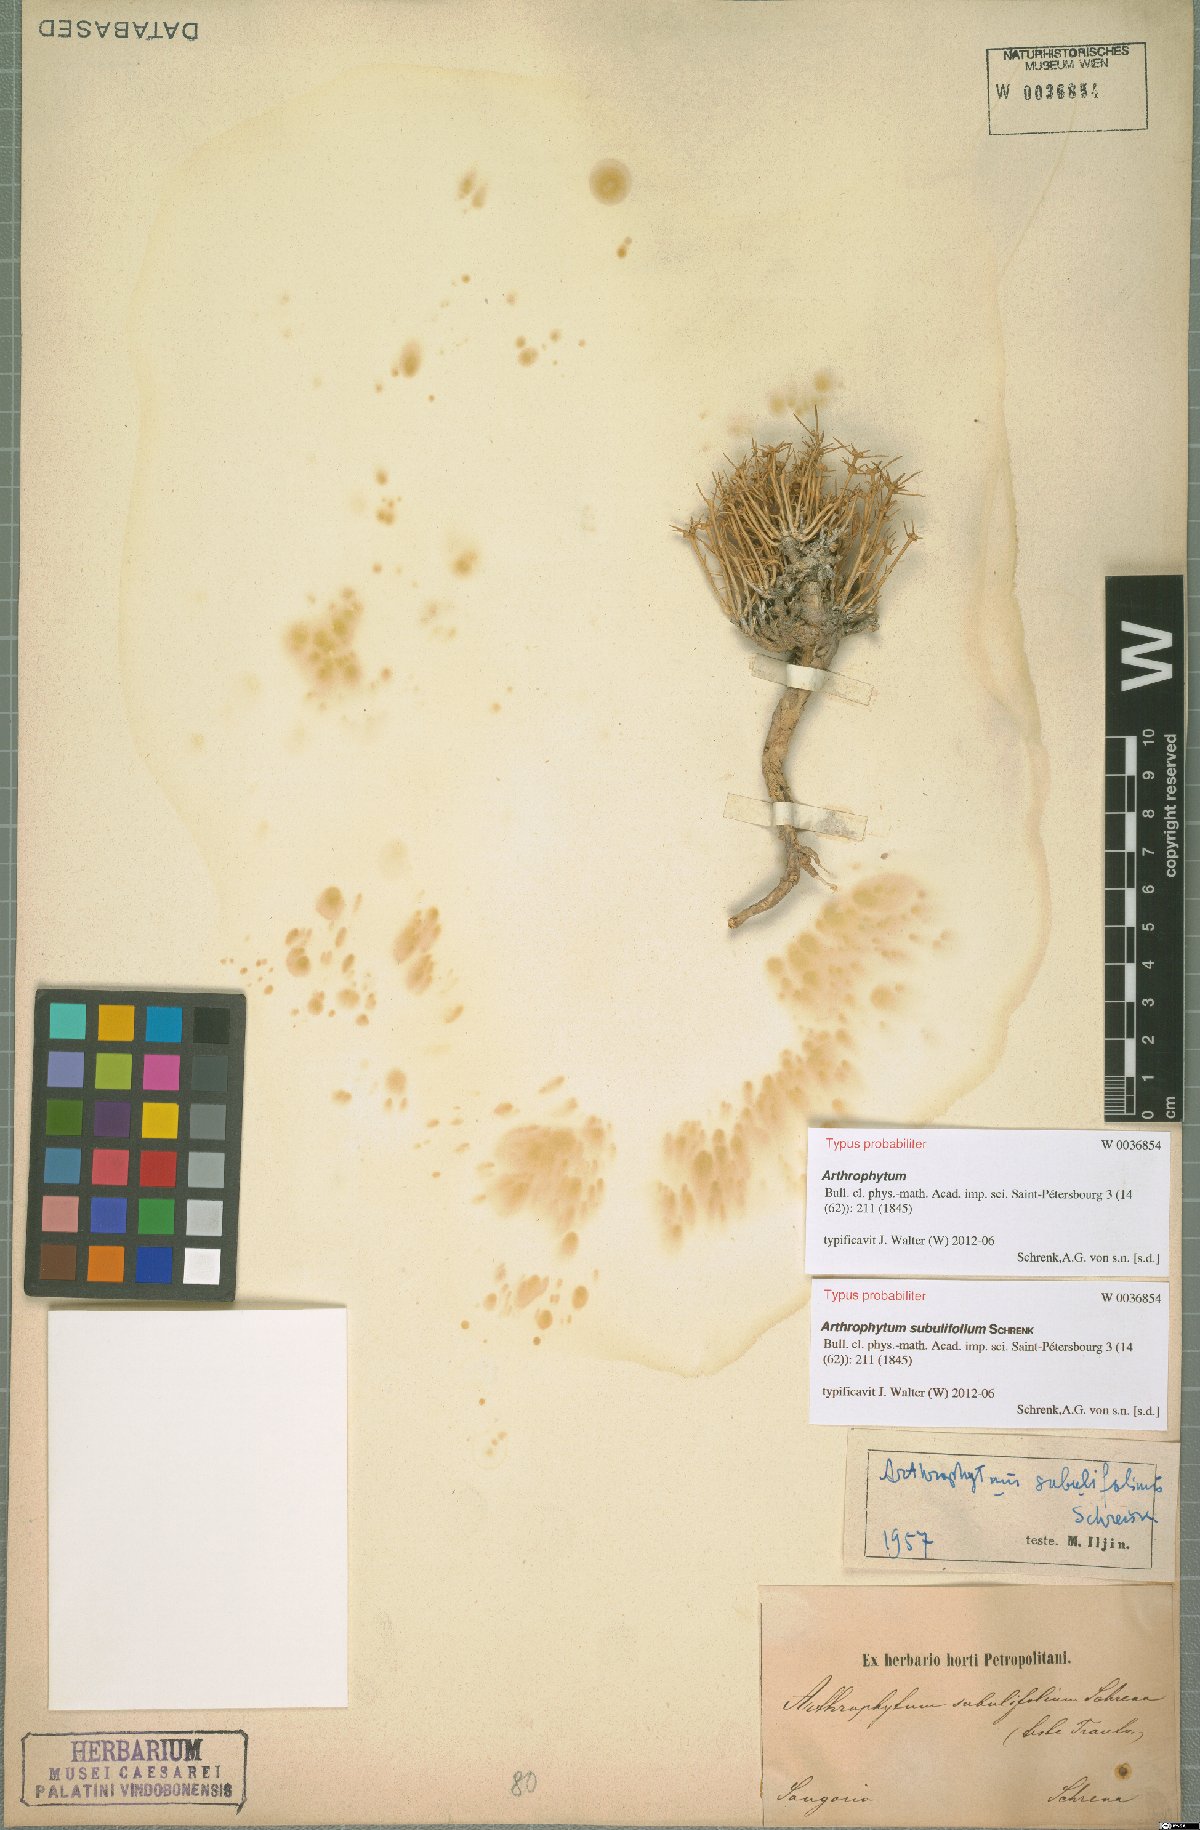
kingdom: Plantae
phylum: Tracheophyta
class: Magnoliopsida
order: Caryophyllales
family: Amaranthaceae
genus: Arthrophytum
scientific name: Arthrophytum subulifolium
